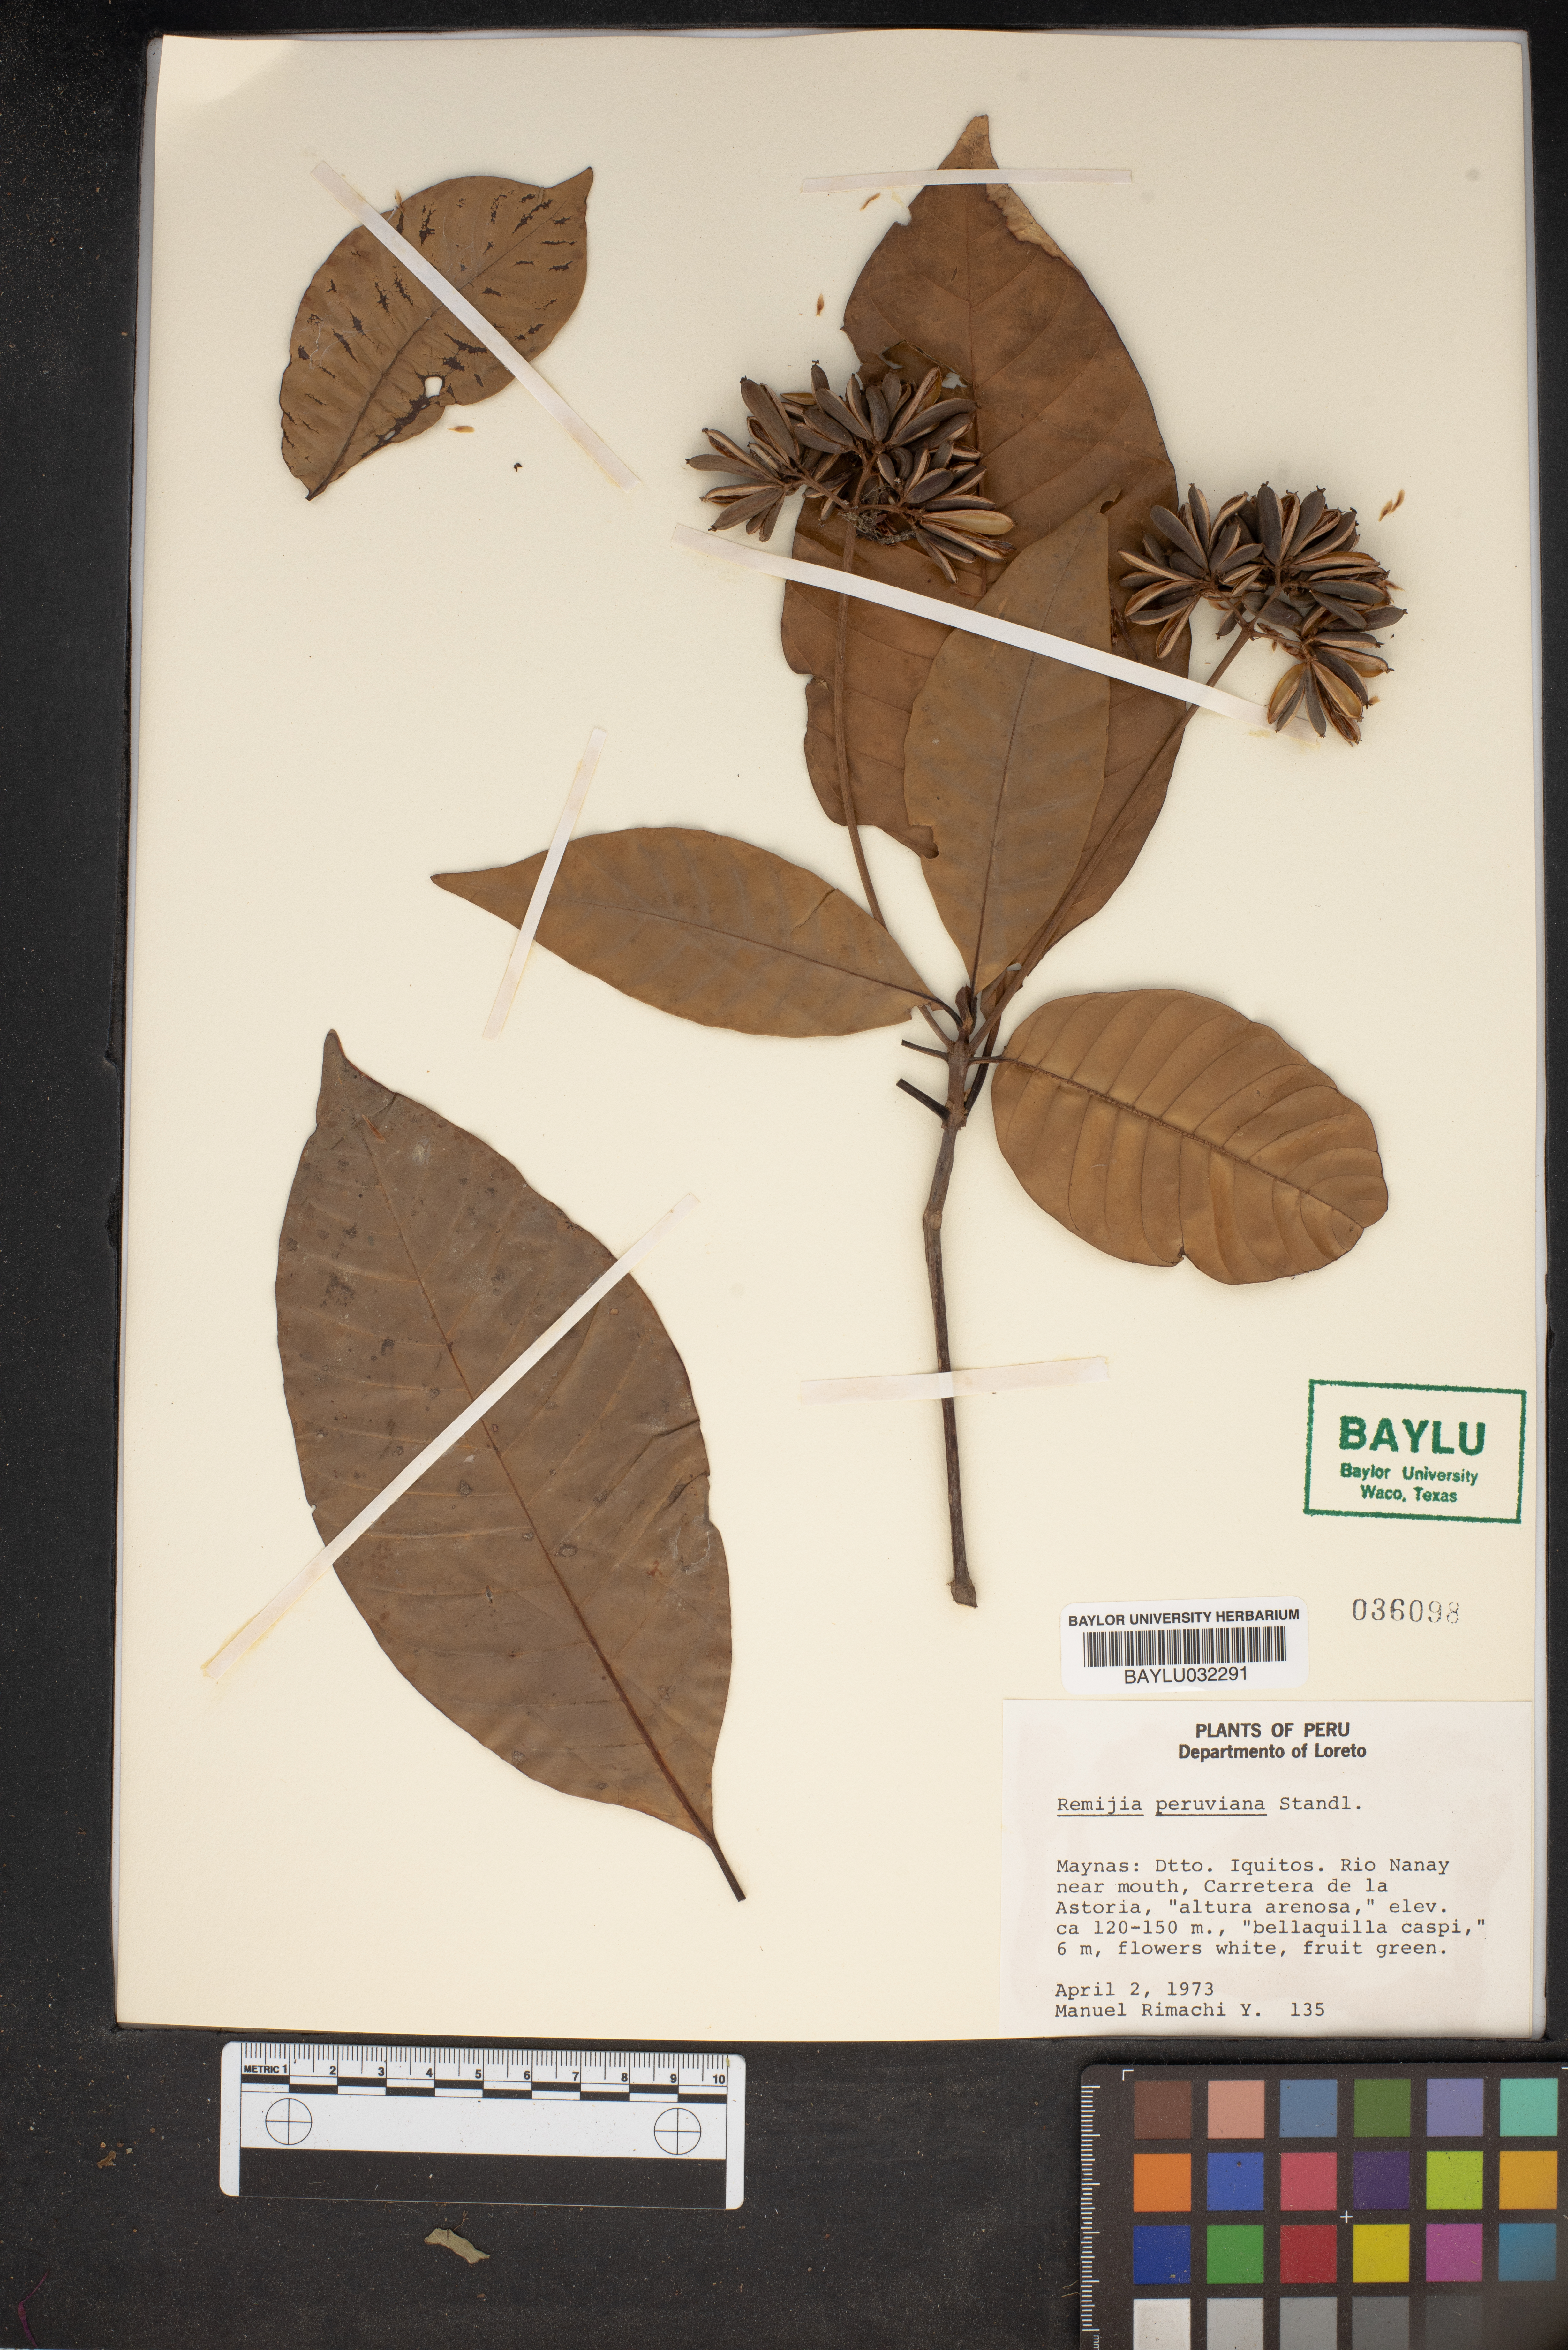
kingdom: Plantae
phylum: Tracheophyta
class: Magnoliopsida
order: Gentianales
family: Rubiaceae
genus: Ciliosemina
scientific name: Ciliosemina pedunculata
